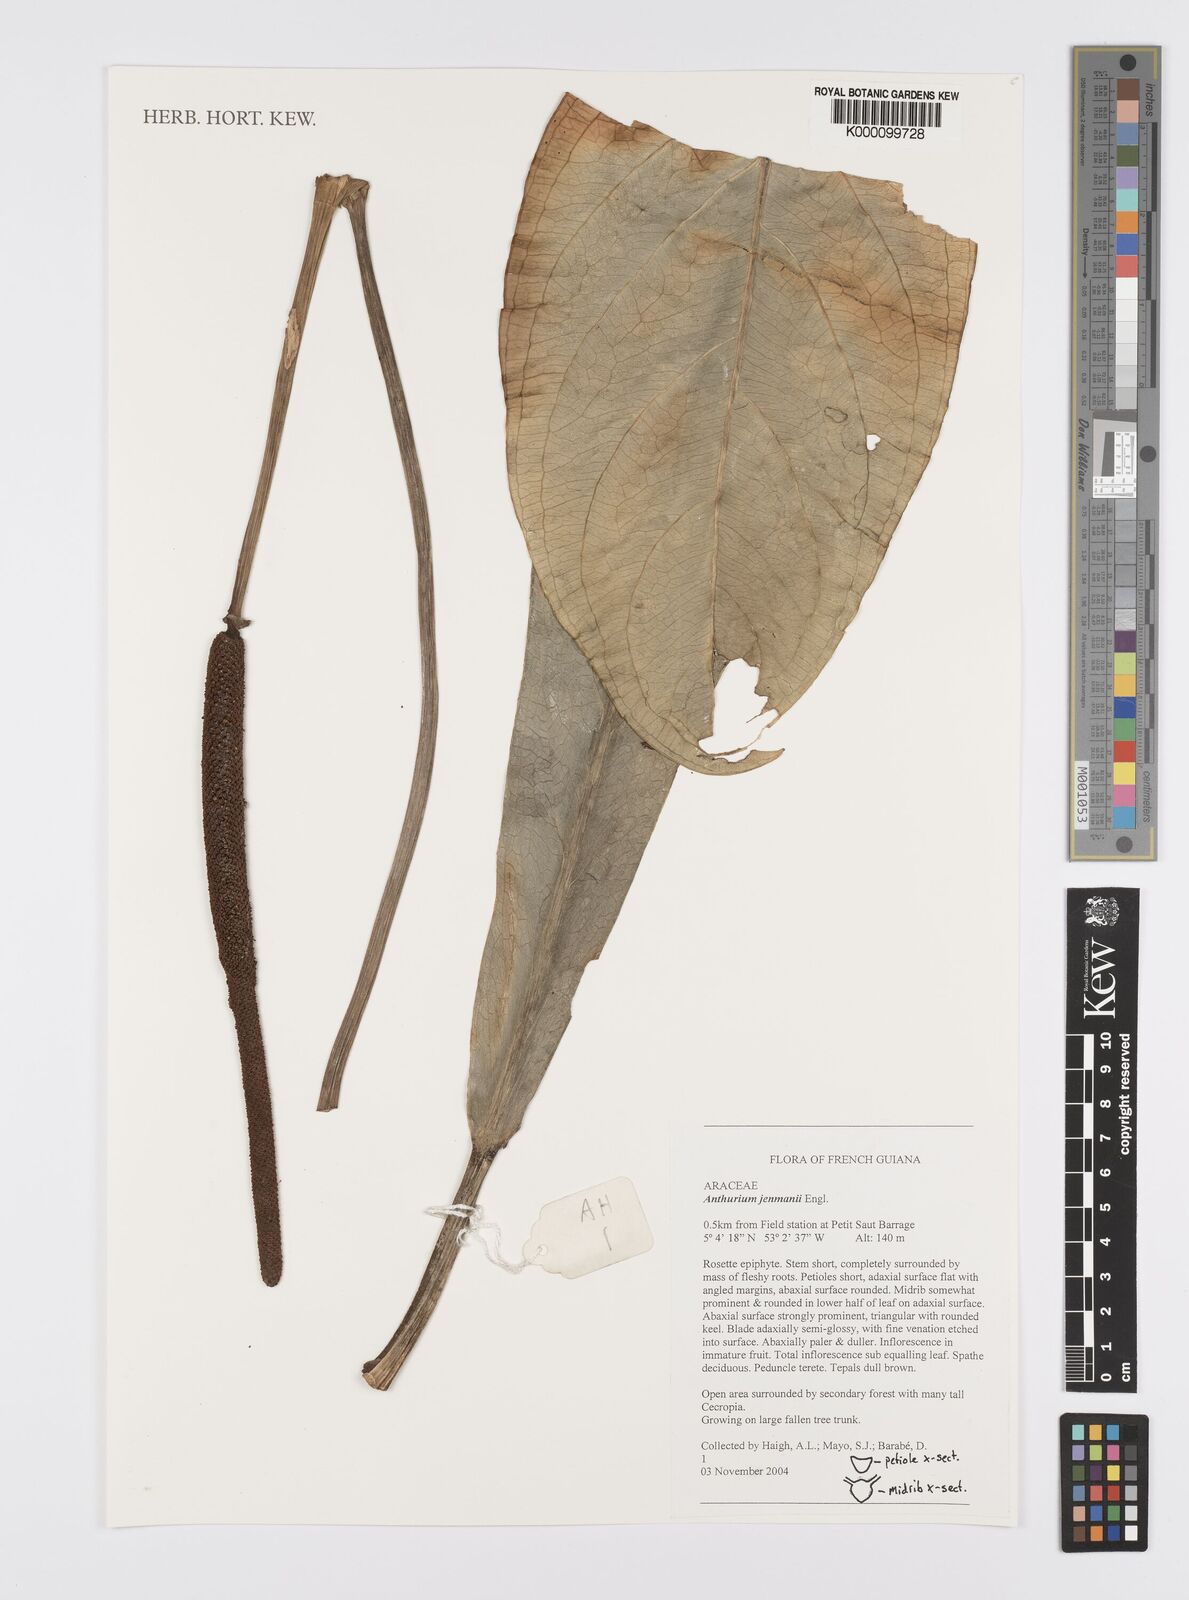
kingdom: Plantae
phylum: Tracheophyta
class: Liliopsida
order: Alismatales
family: Araceae
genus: Anthurium
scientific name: Anthurium jenmanii
